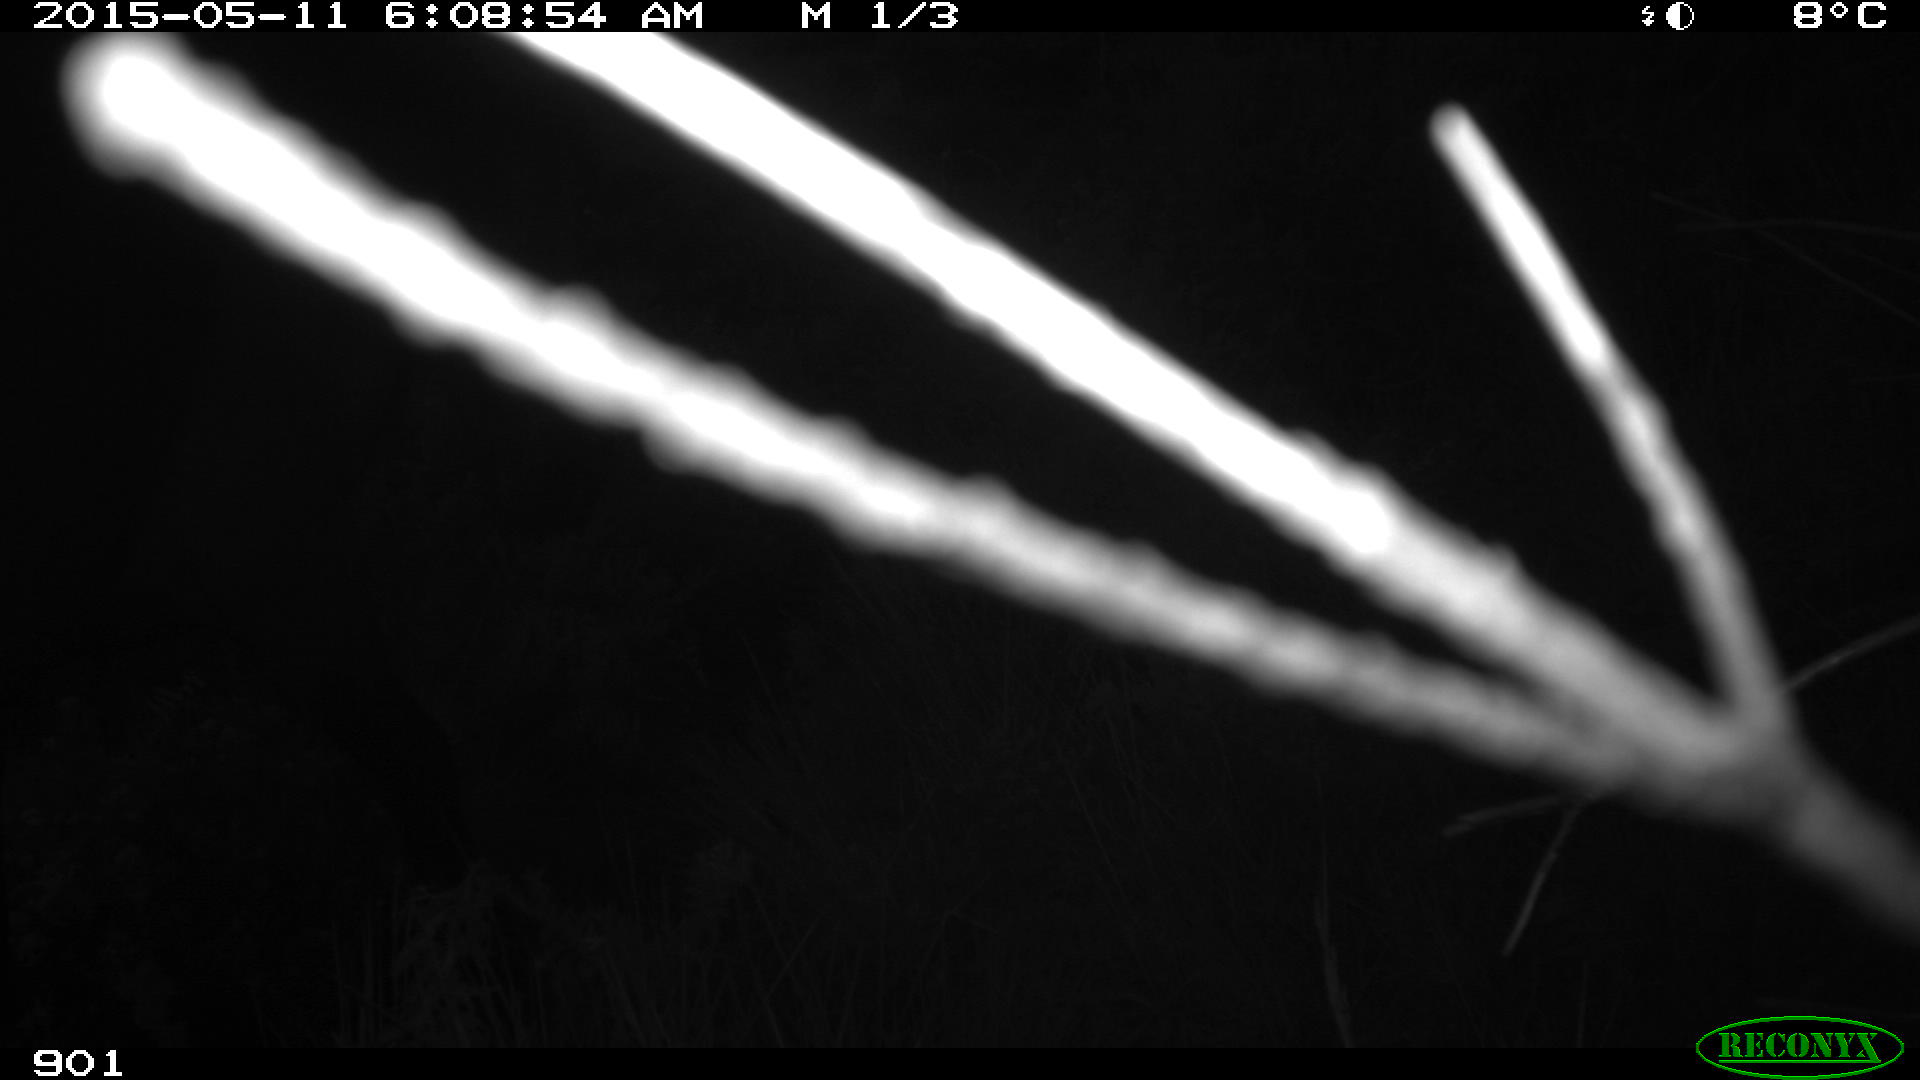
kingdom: Animalia
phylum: Chordata
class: Mammalia
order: Perissodactyla
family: Equidae
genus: Equus
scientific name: Equus caballus
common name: Horse
